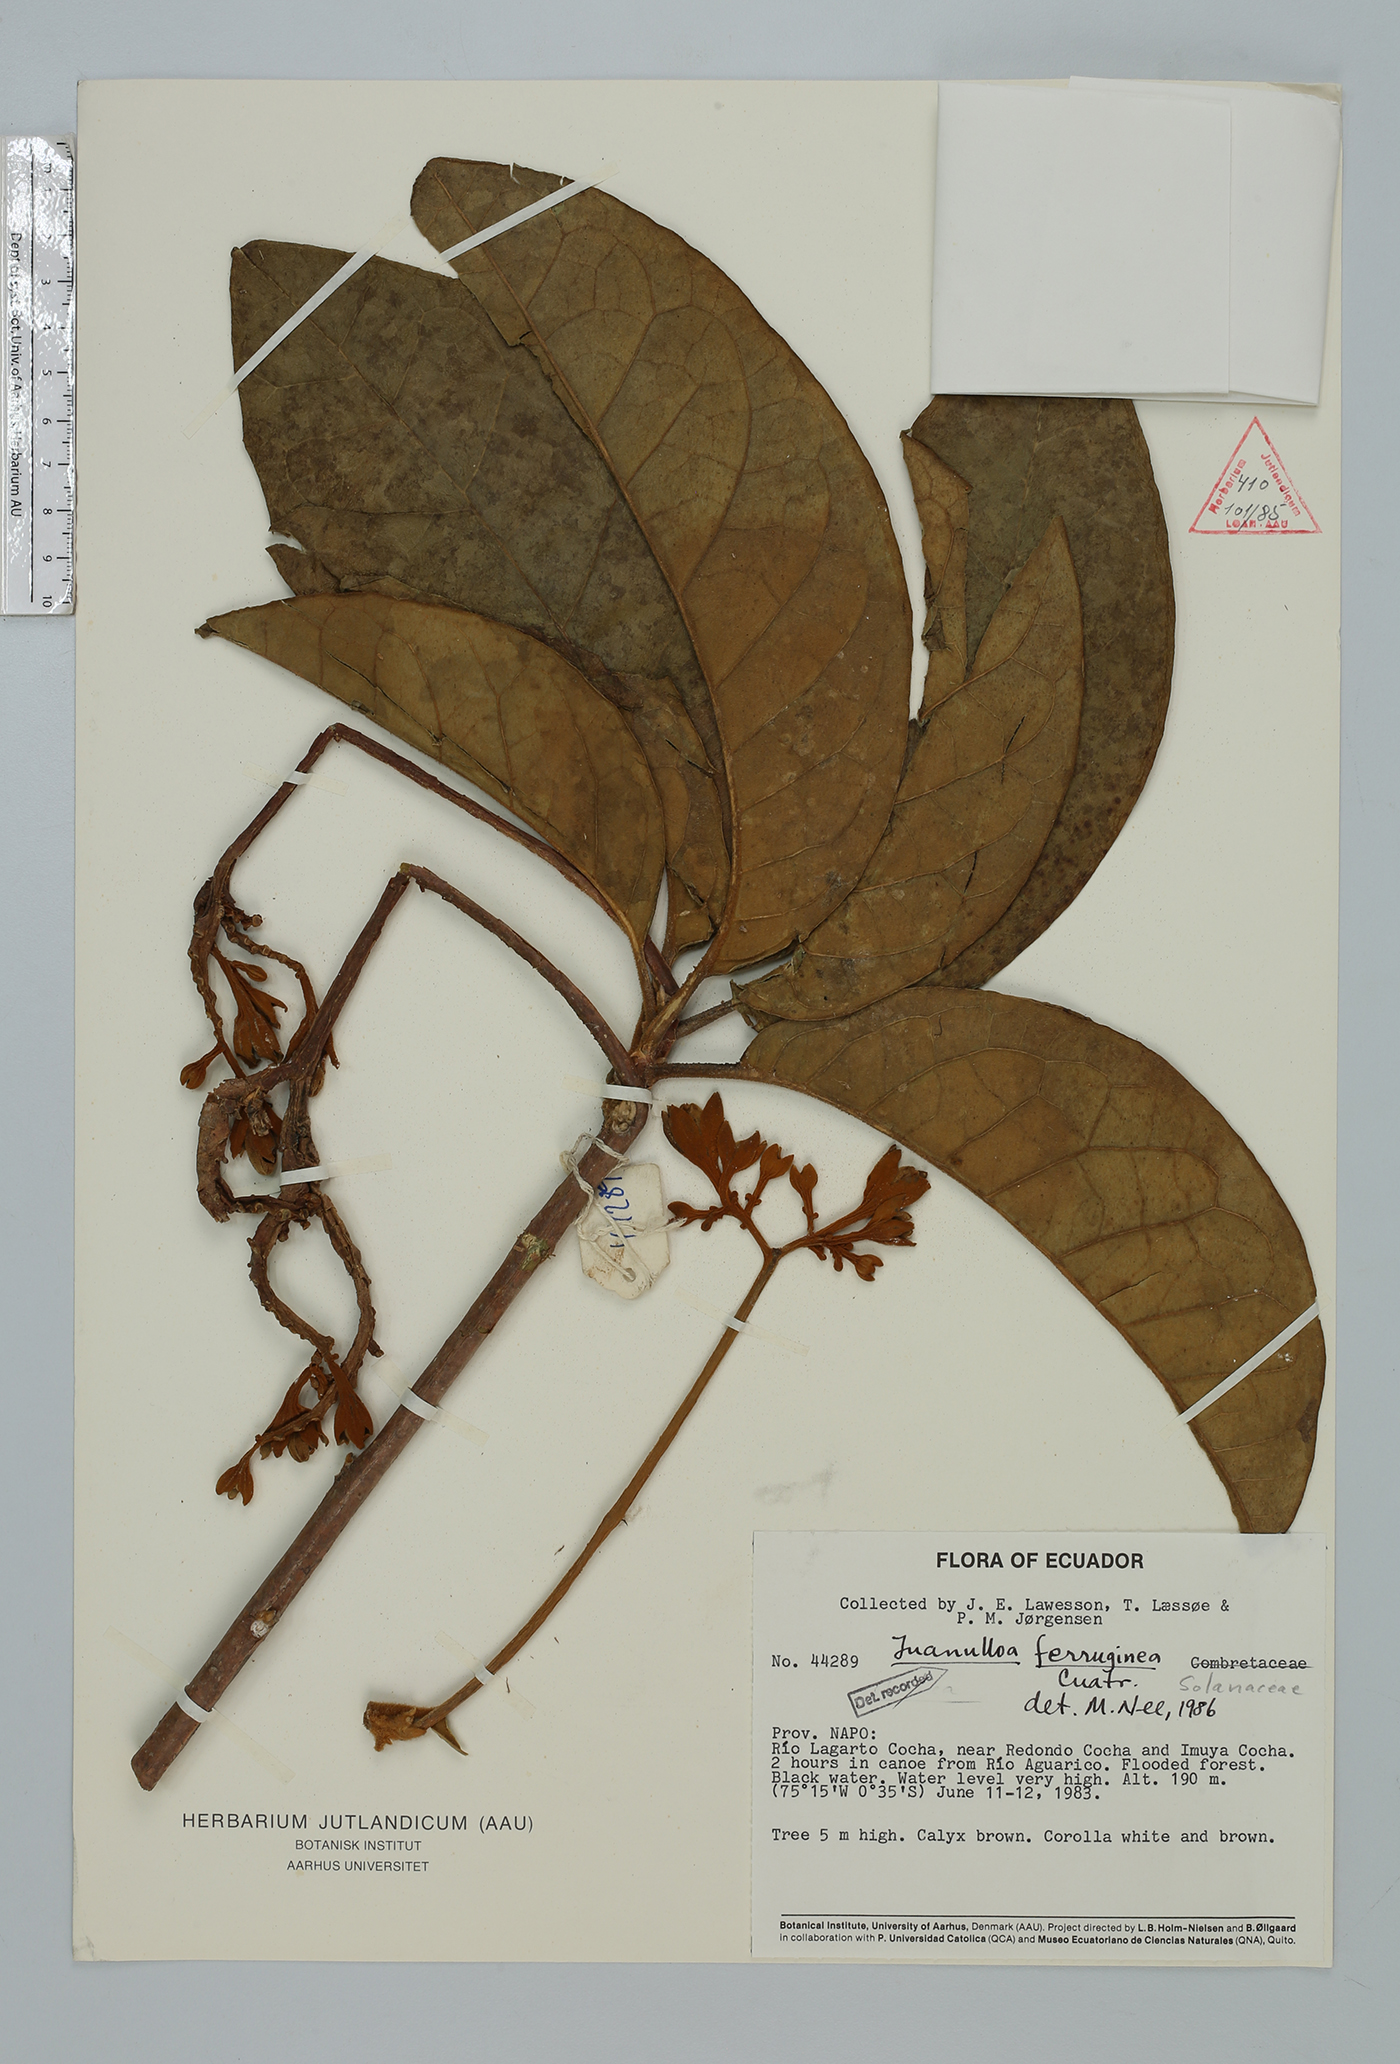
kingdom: Plantae
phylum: Tracheophyta
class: Magnoliopsida
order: Solanales
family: Solanaceae
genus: Juanulloa
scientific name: Juanulloa ferruginea
